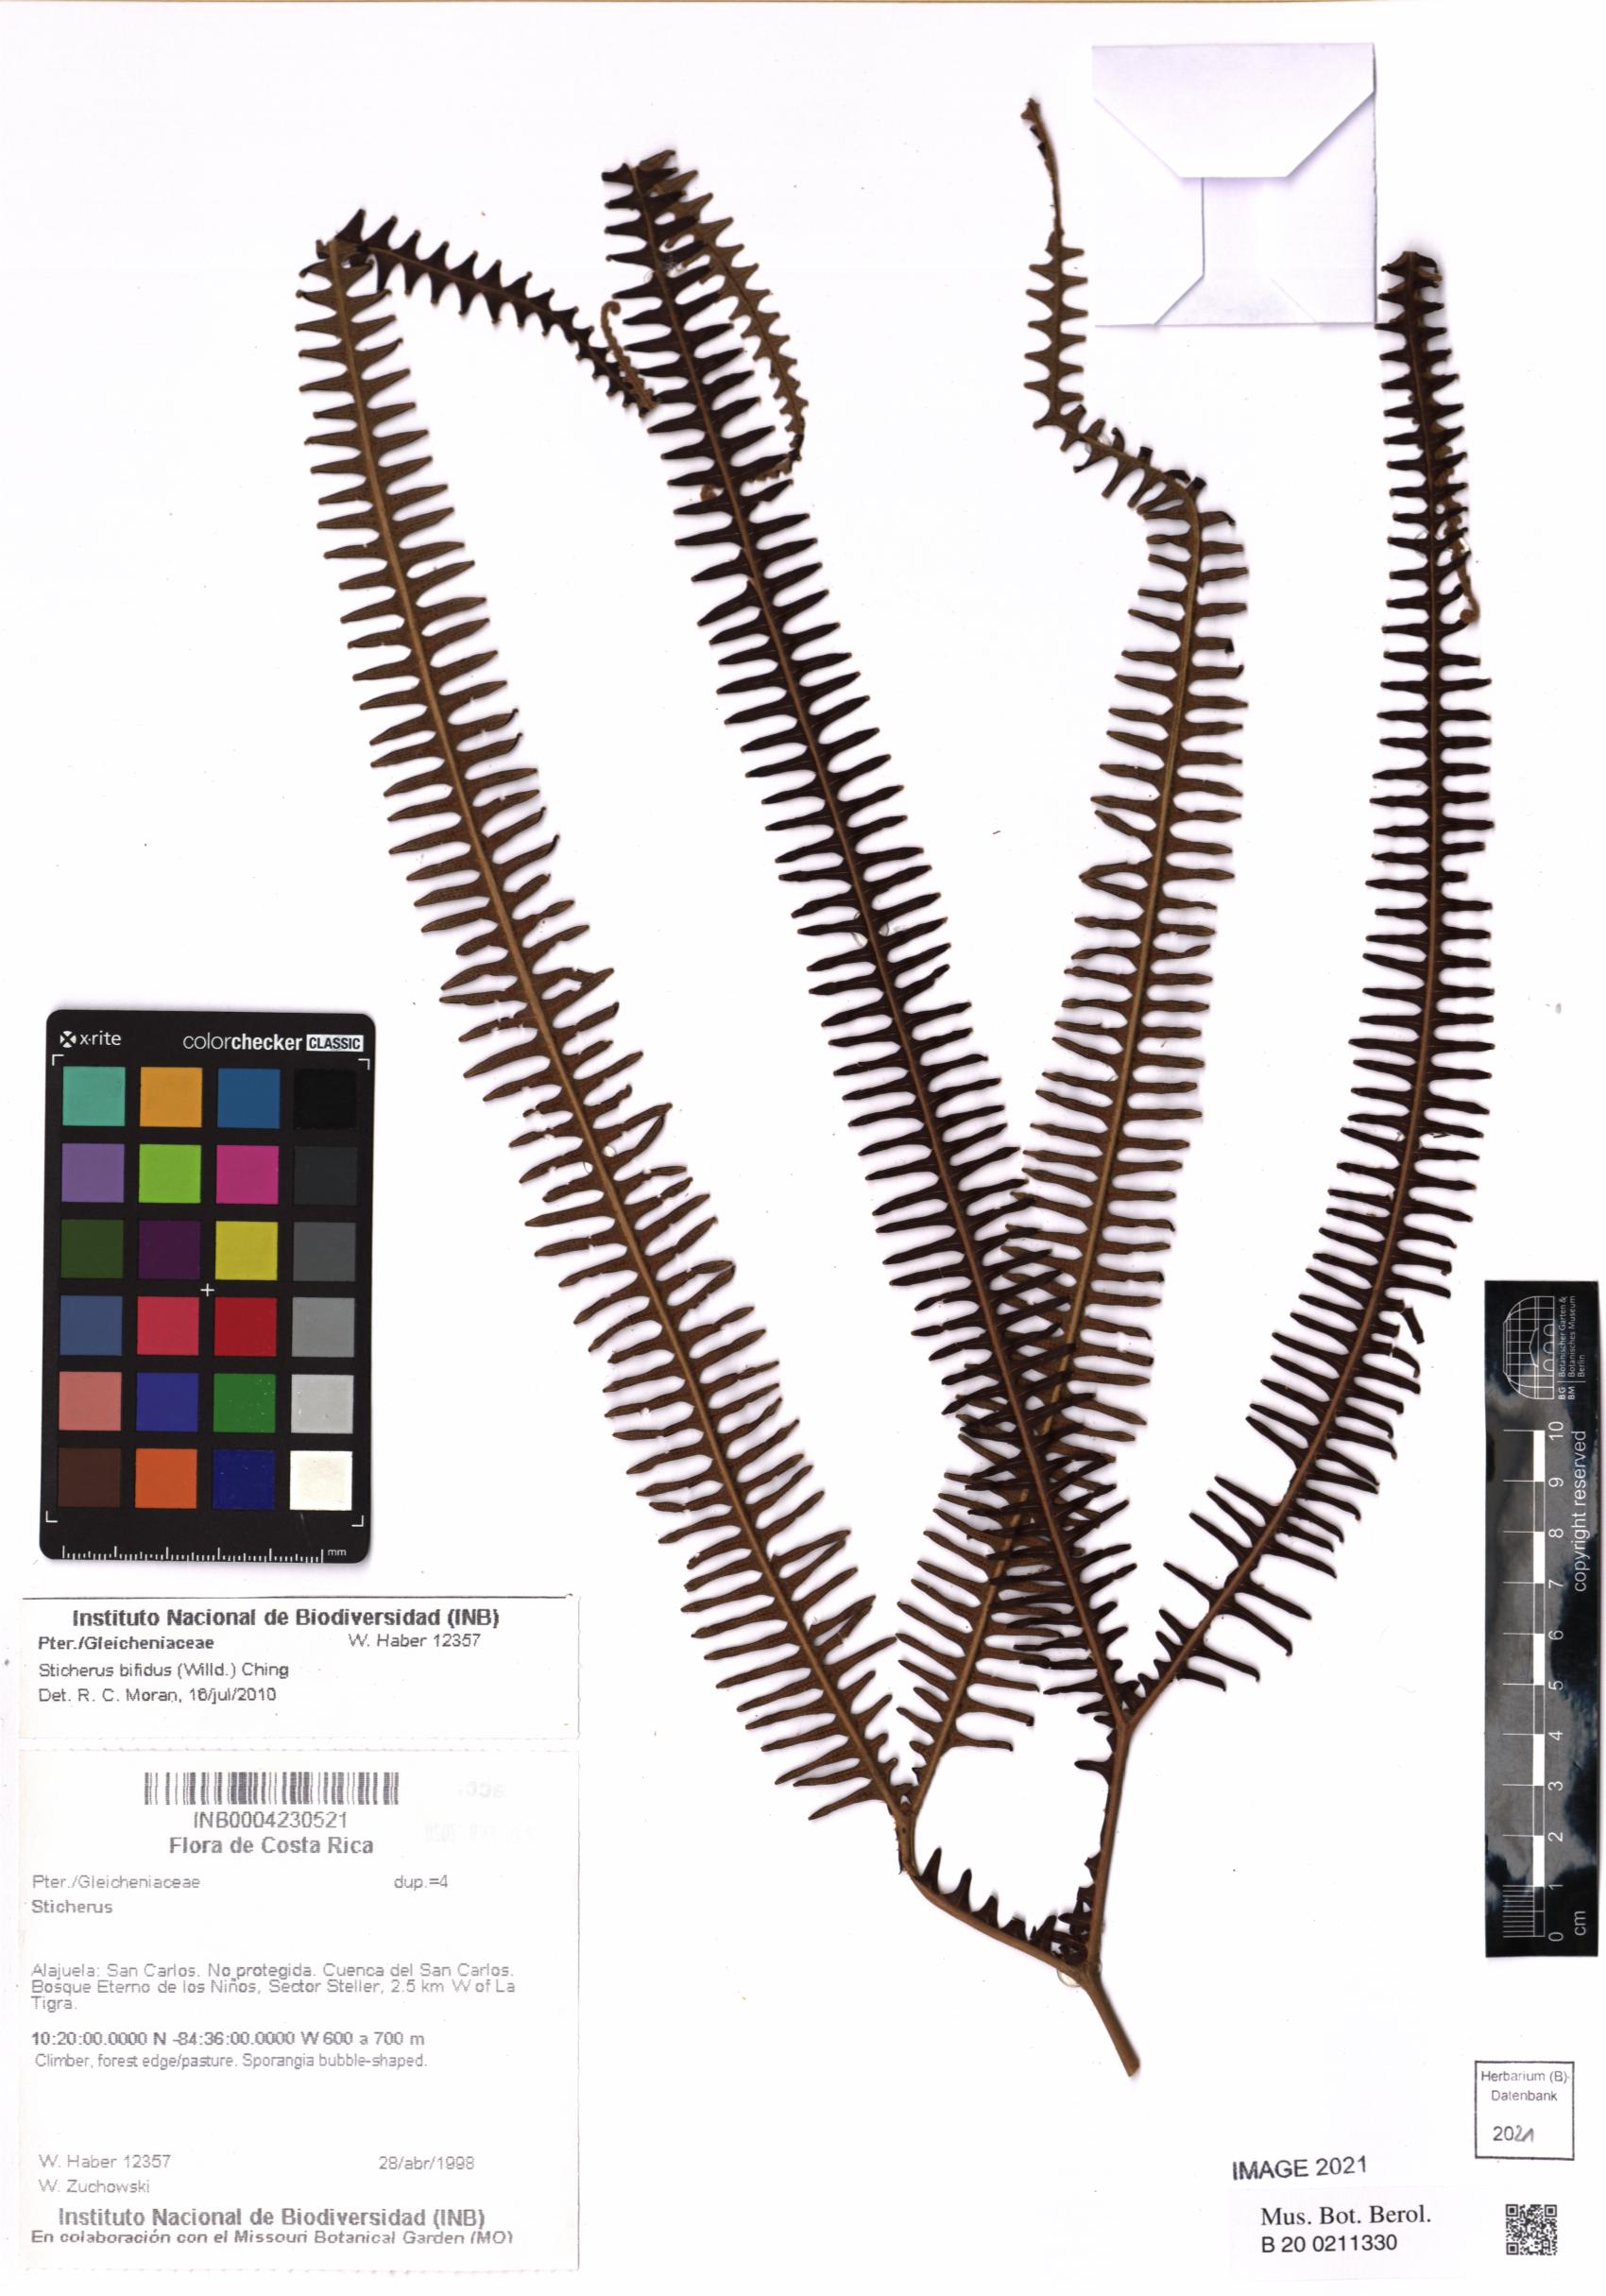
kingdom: Plantae
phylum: Tracheophyta
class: Polypodiopsida
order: Gleicheniales
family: Gleicheniaceae
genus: Sticherus
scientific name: Sticherus bifidus
